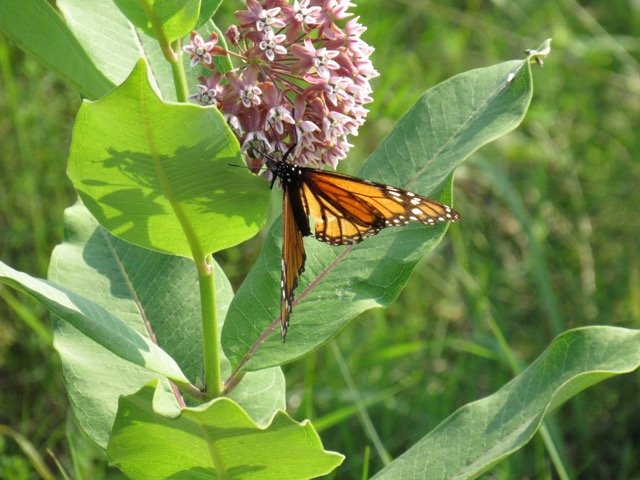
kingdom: Animalia
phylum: Arthropoda
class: Insecta
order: Lepidoptera
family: Nymphalidae
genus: Danaus
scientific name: Danaus plexippus
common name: Monarch
